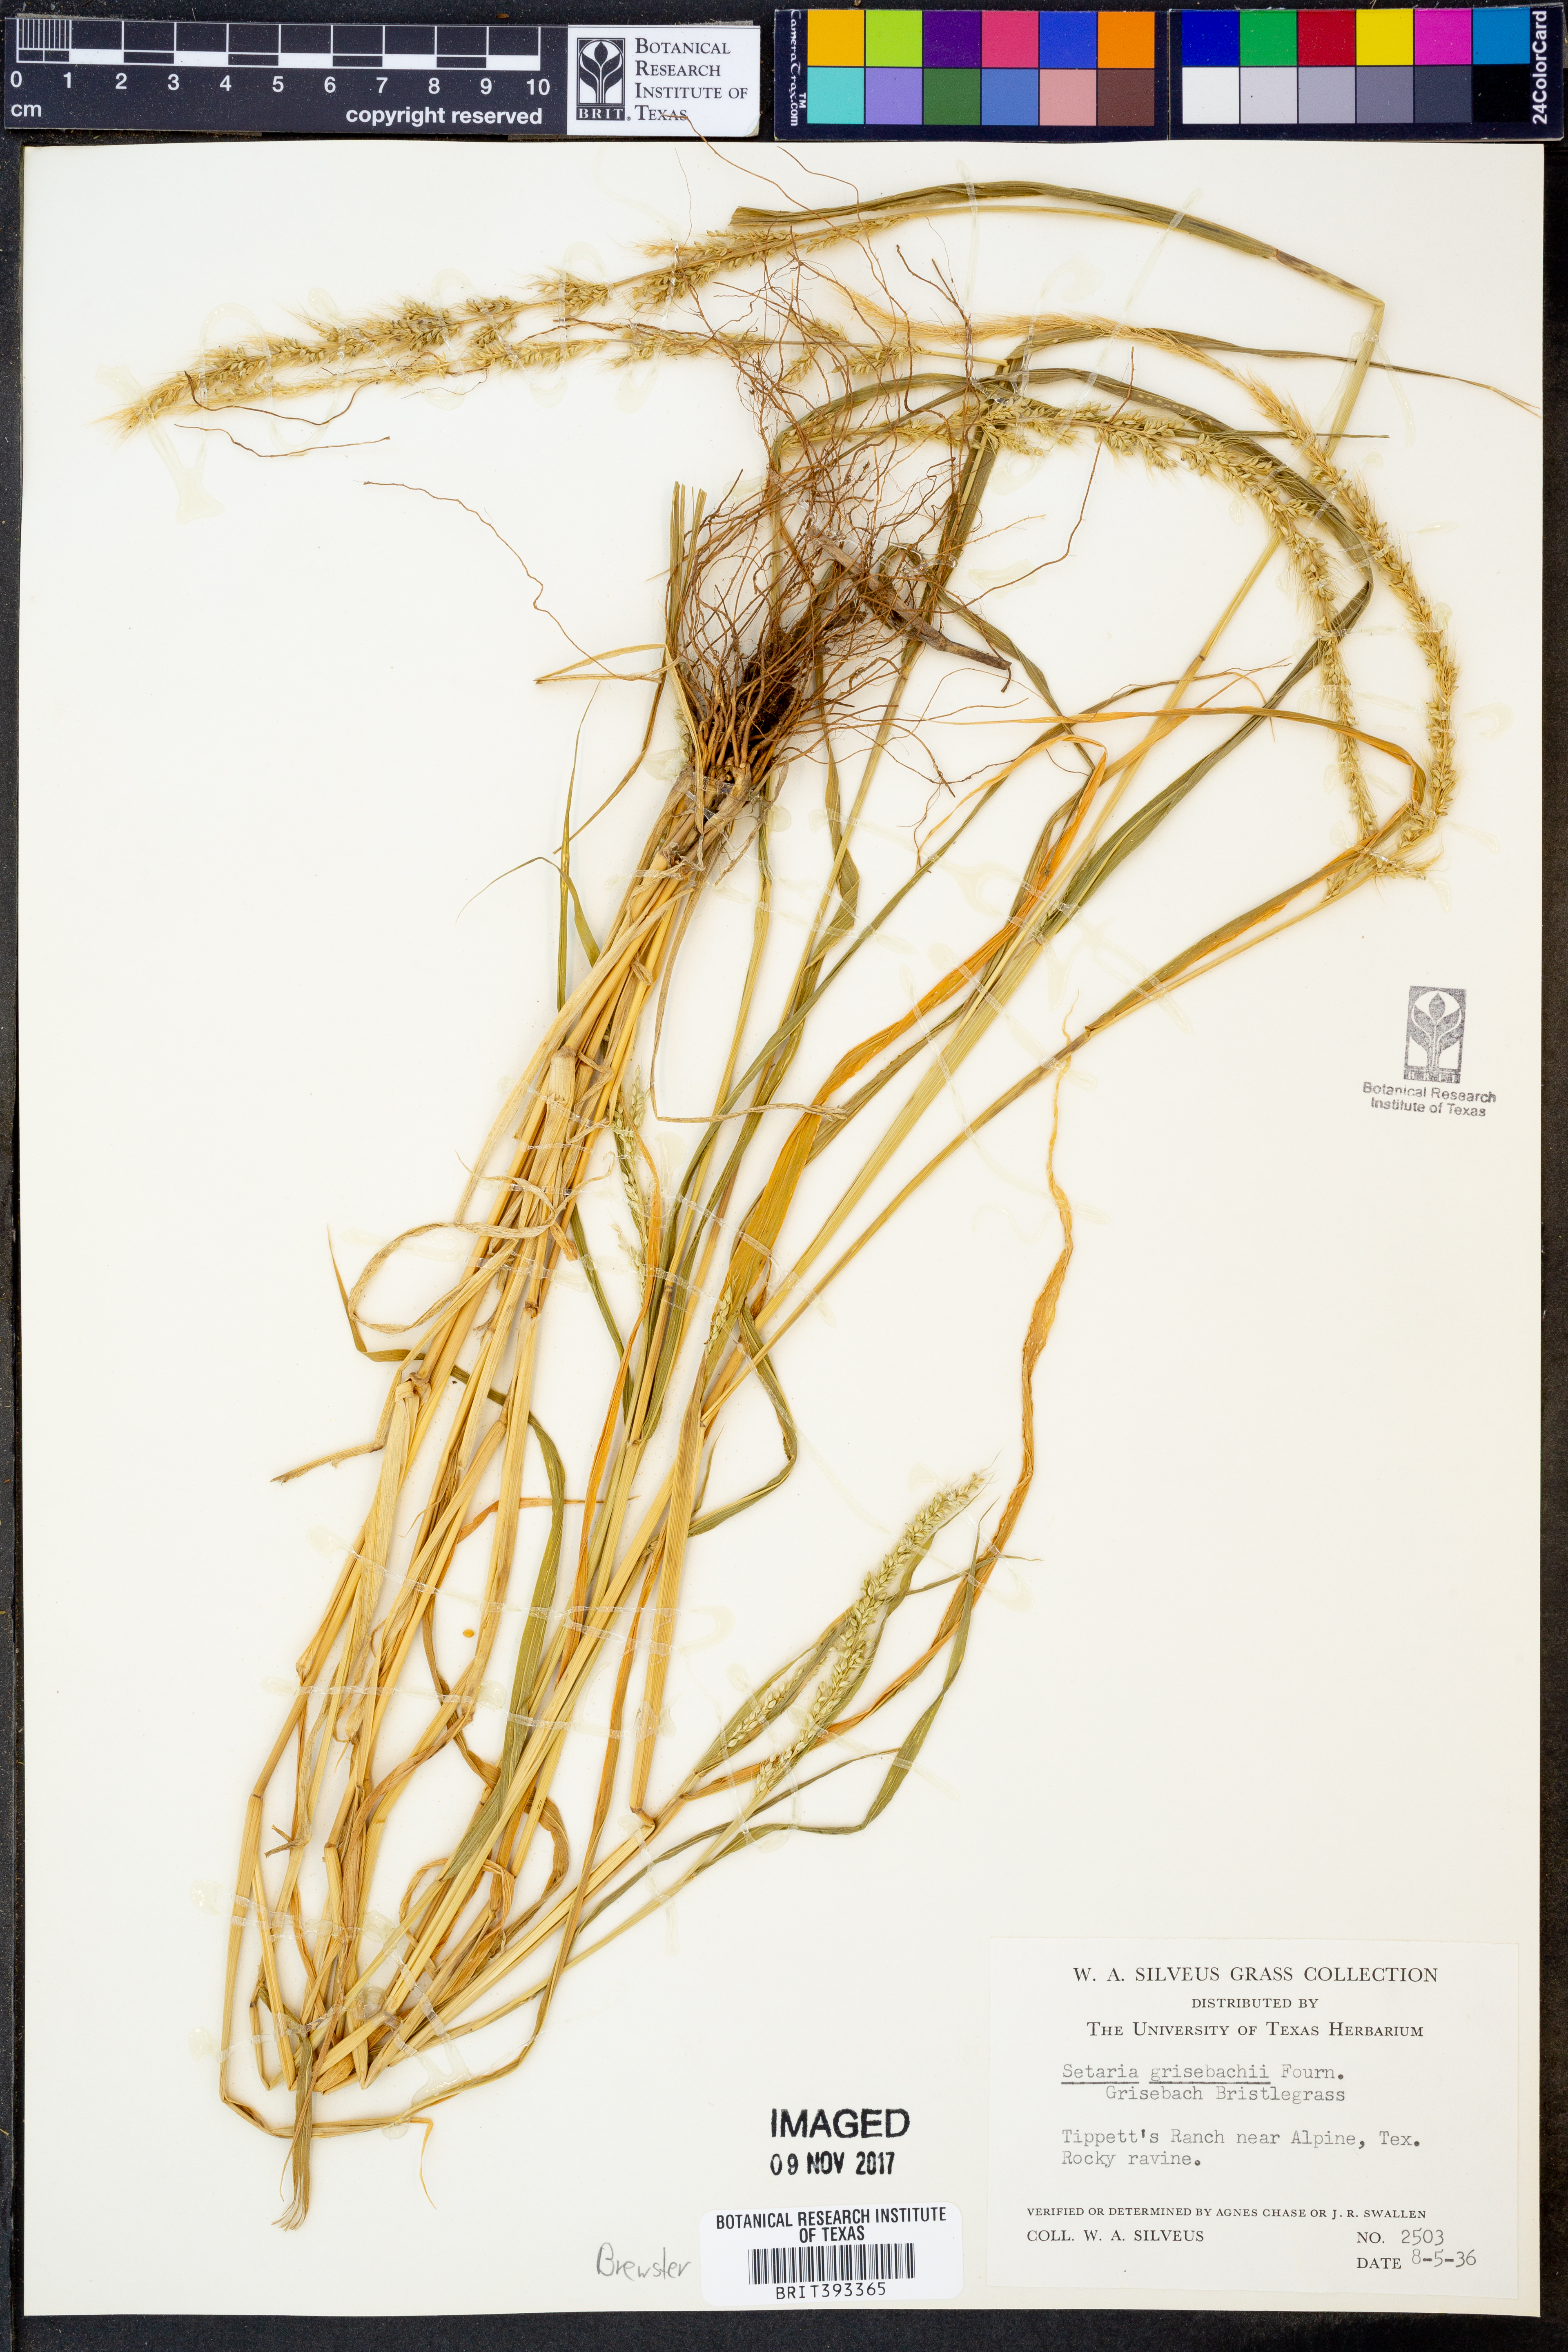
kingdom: Plantae
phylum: Tracheophyta
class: Liliopsida
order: Poales
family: Poaceae
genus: Setaria
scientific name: Setaria grisebachii
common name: Grisebach's bristle grass
